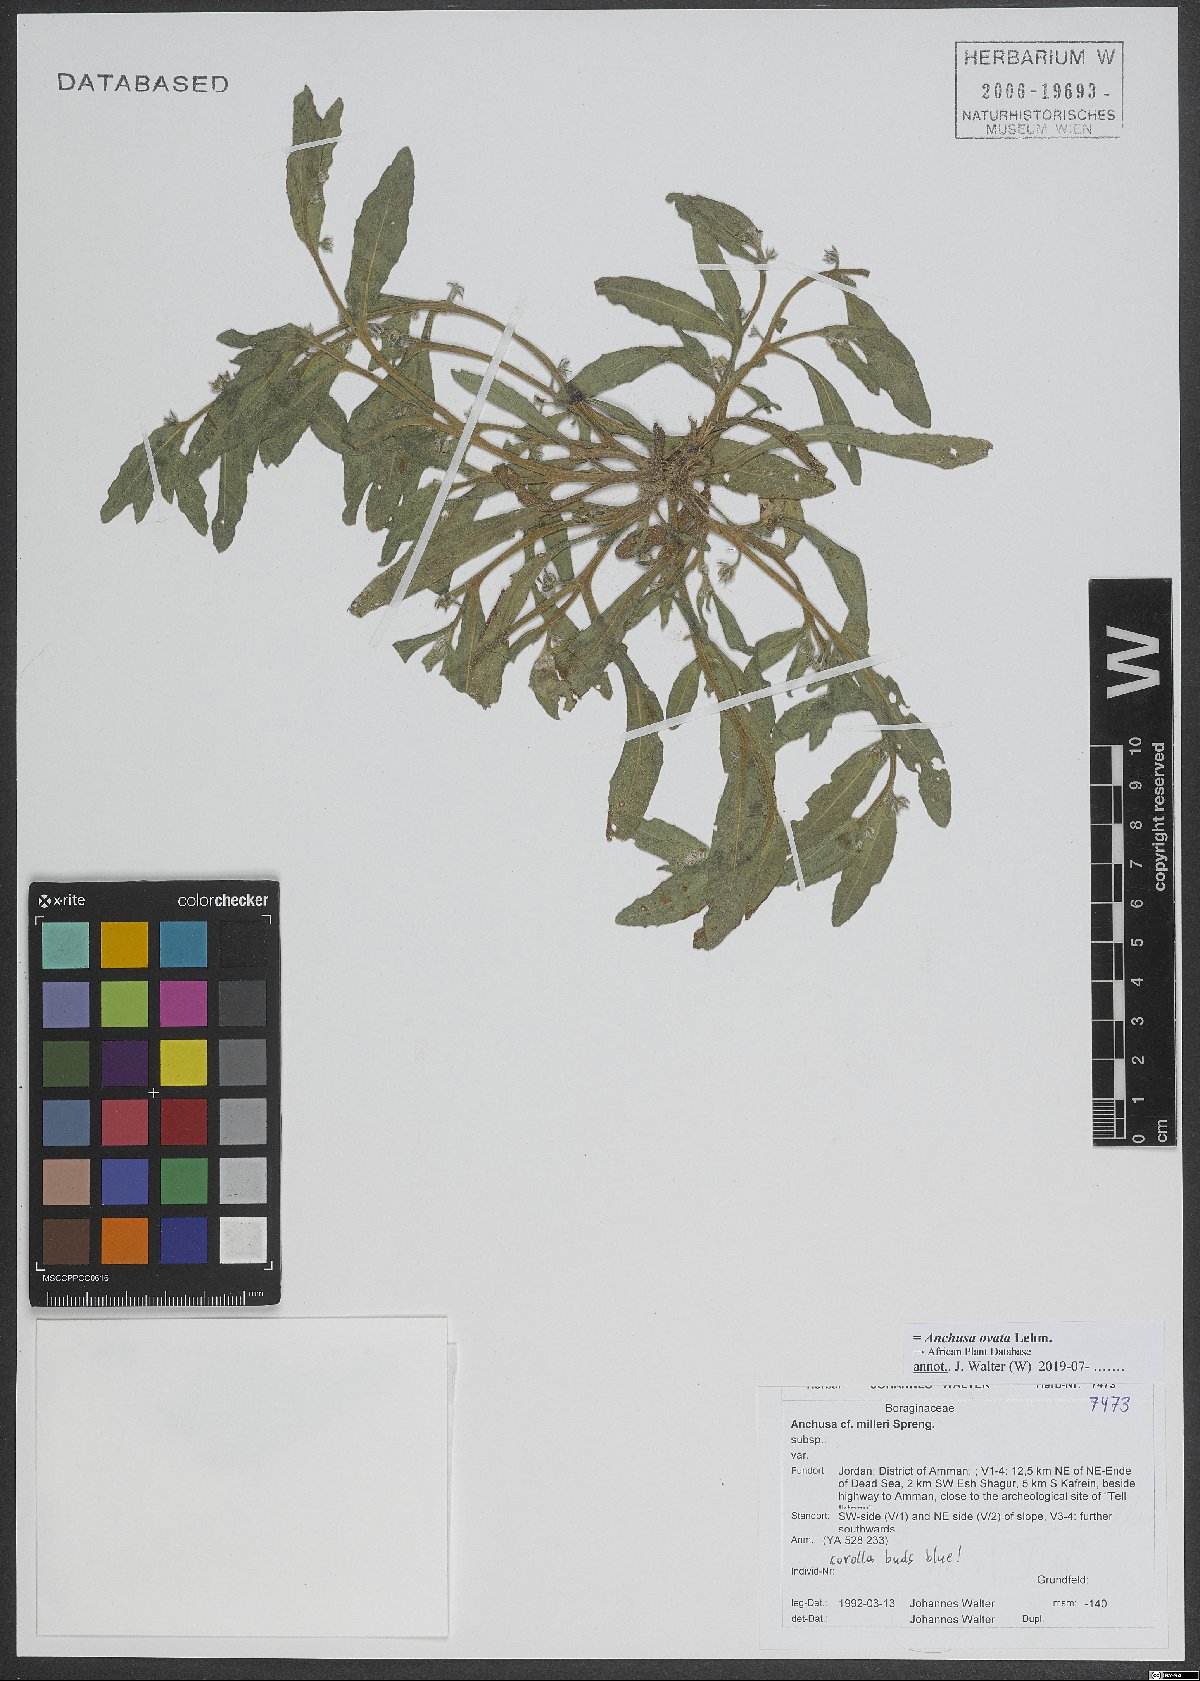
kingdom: Plantae
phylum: Tracheophyta
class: Magnoliopsida
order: Boraginales
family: Boraginaceae
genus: Lycopsis
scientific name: Lycopsis arvensis
